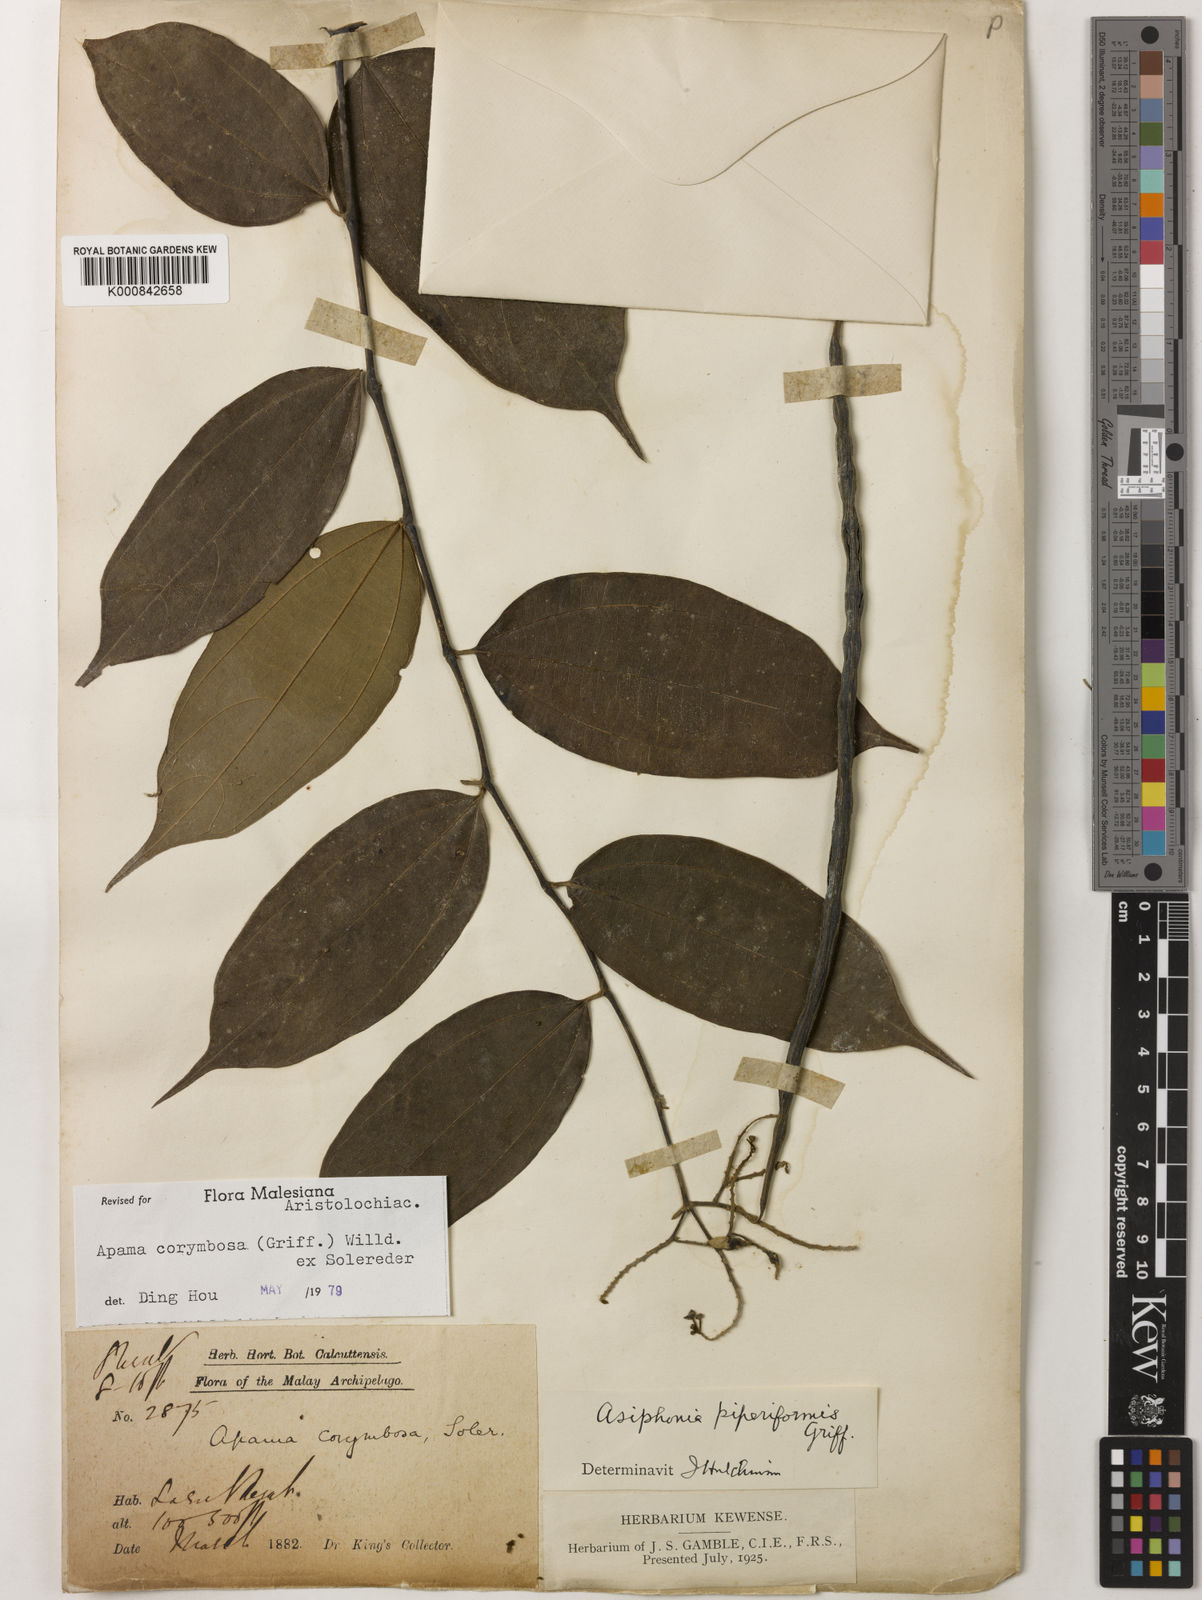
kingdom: Plantae
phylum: Tracheophyta
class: Magnoliopsida
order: Piperales
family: Aristolochiaceae
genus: Thottea
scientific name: Thottea piperiformis
